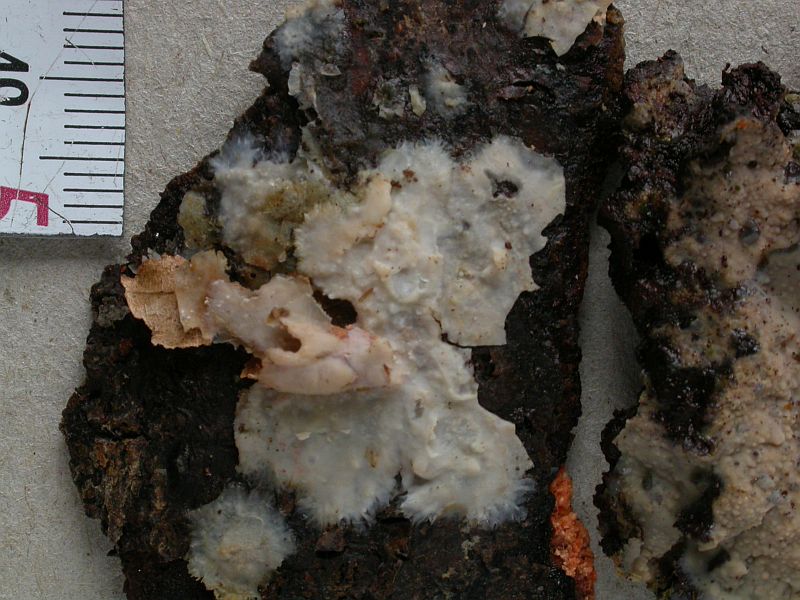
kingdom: Fungi
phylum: Basidiomycota
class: Agaricomycetes
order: Polyporales
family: Meruliaceae
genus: Cytidiella
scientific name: Cytidiella albida
